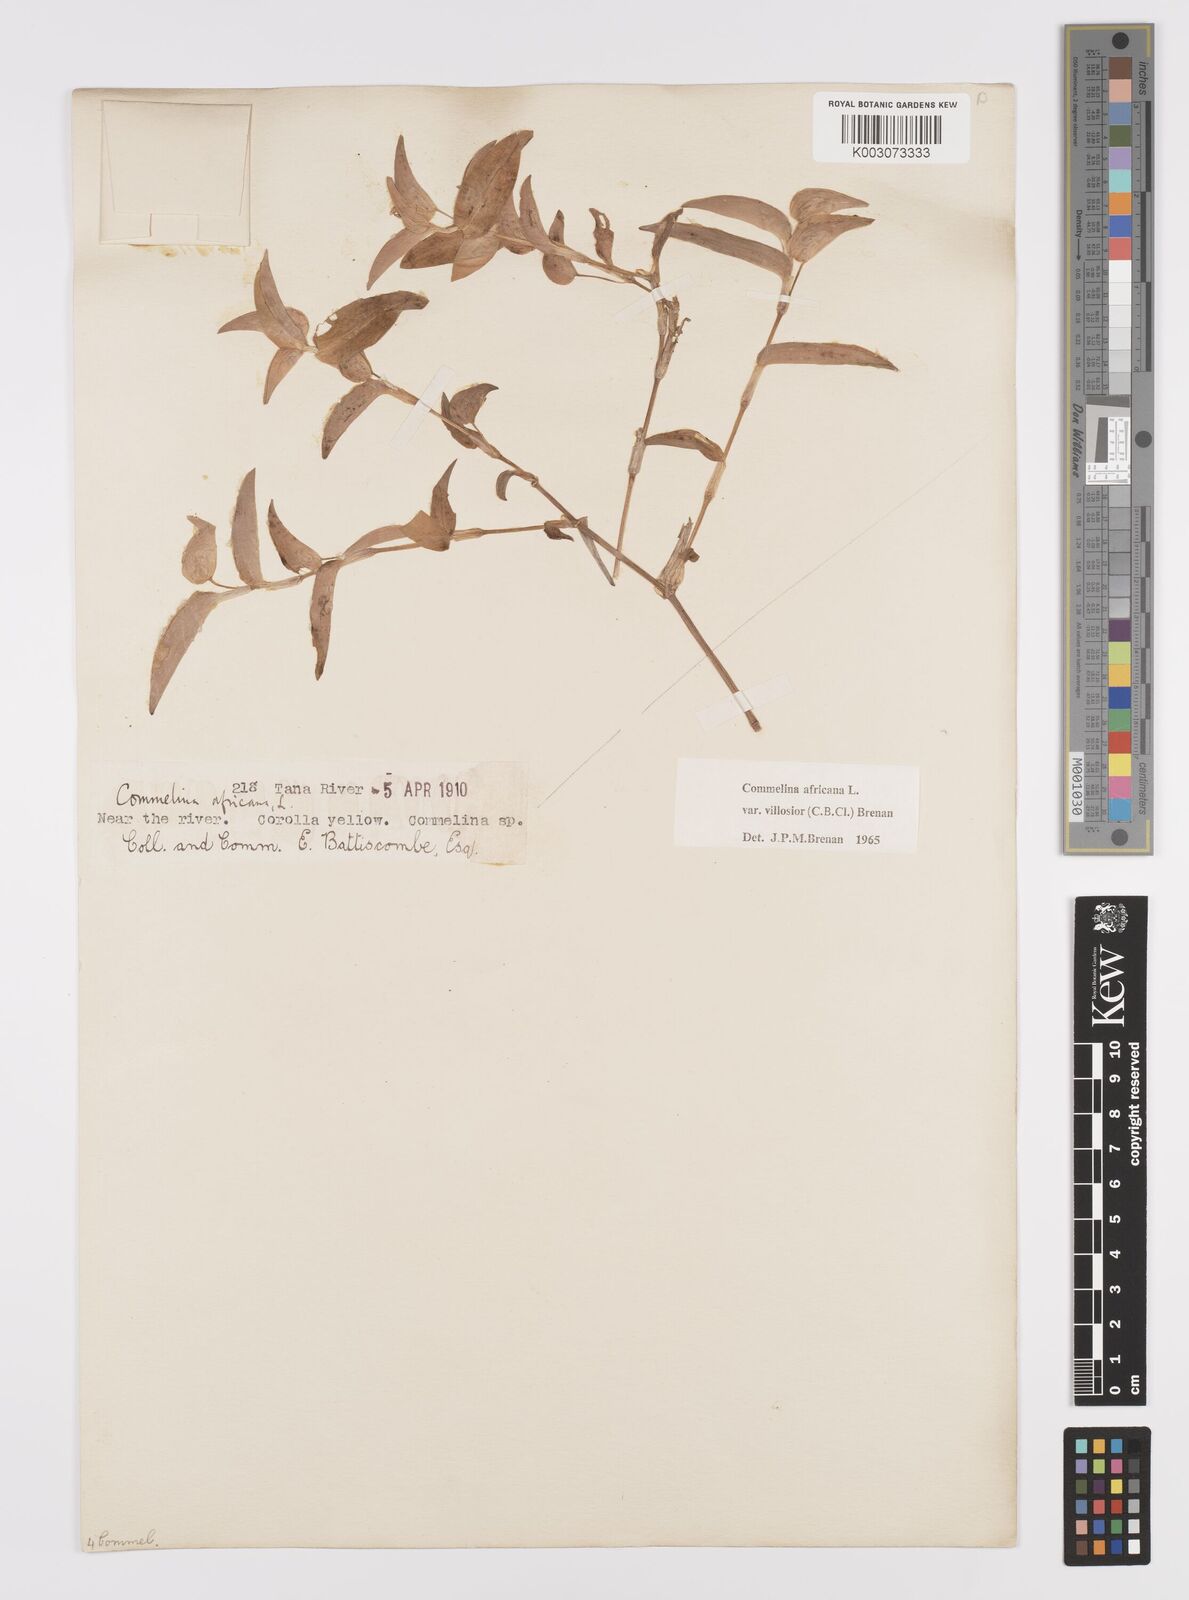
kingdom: Plantae
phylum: Tracheophyta
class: Liliopsida
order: Commelinales
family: Commelinaceae
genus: Commelina
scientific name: Commelina africana
